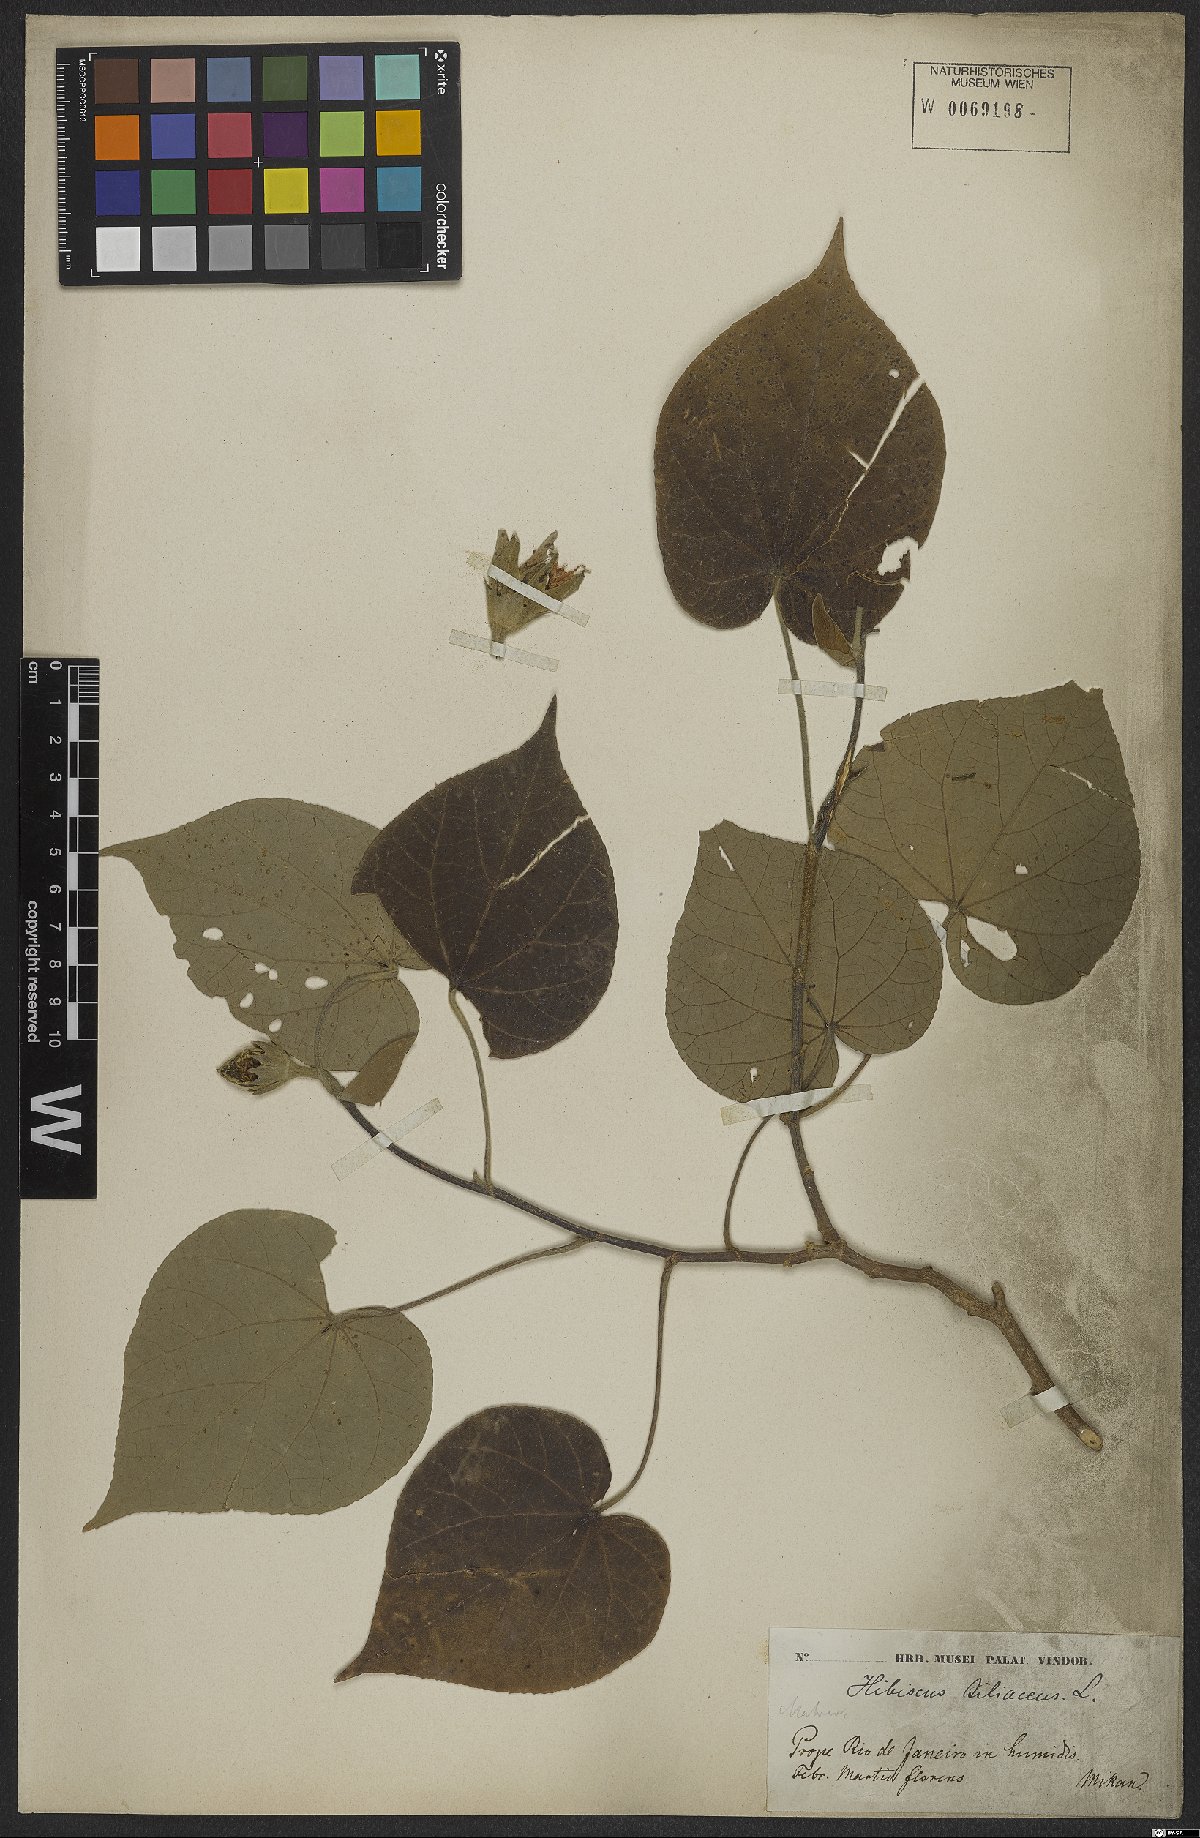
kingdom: Plantae
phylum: Tracheophyta
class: Magnoliopsida
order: Malvales
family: Malvaceae
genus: Talipariti
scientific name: Talipariti tiliaceum
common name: Sea hibiscus
